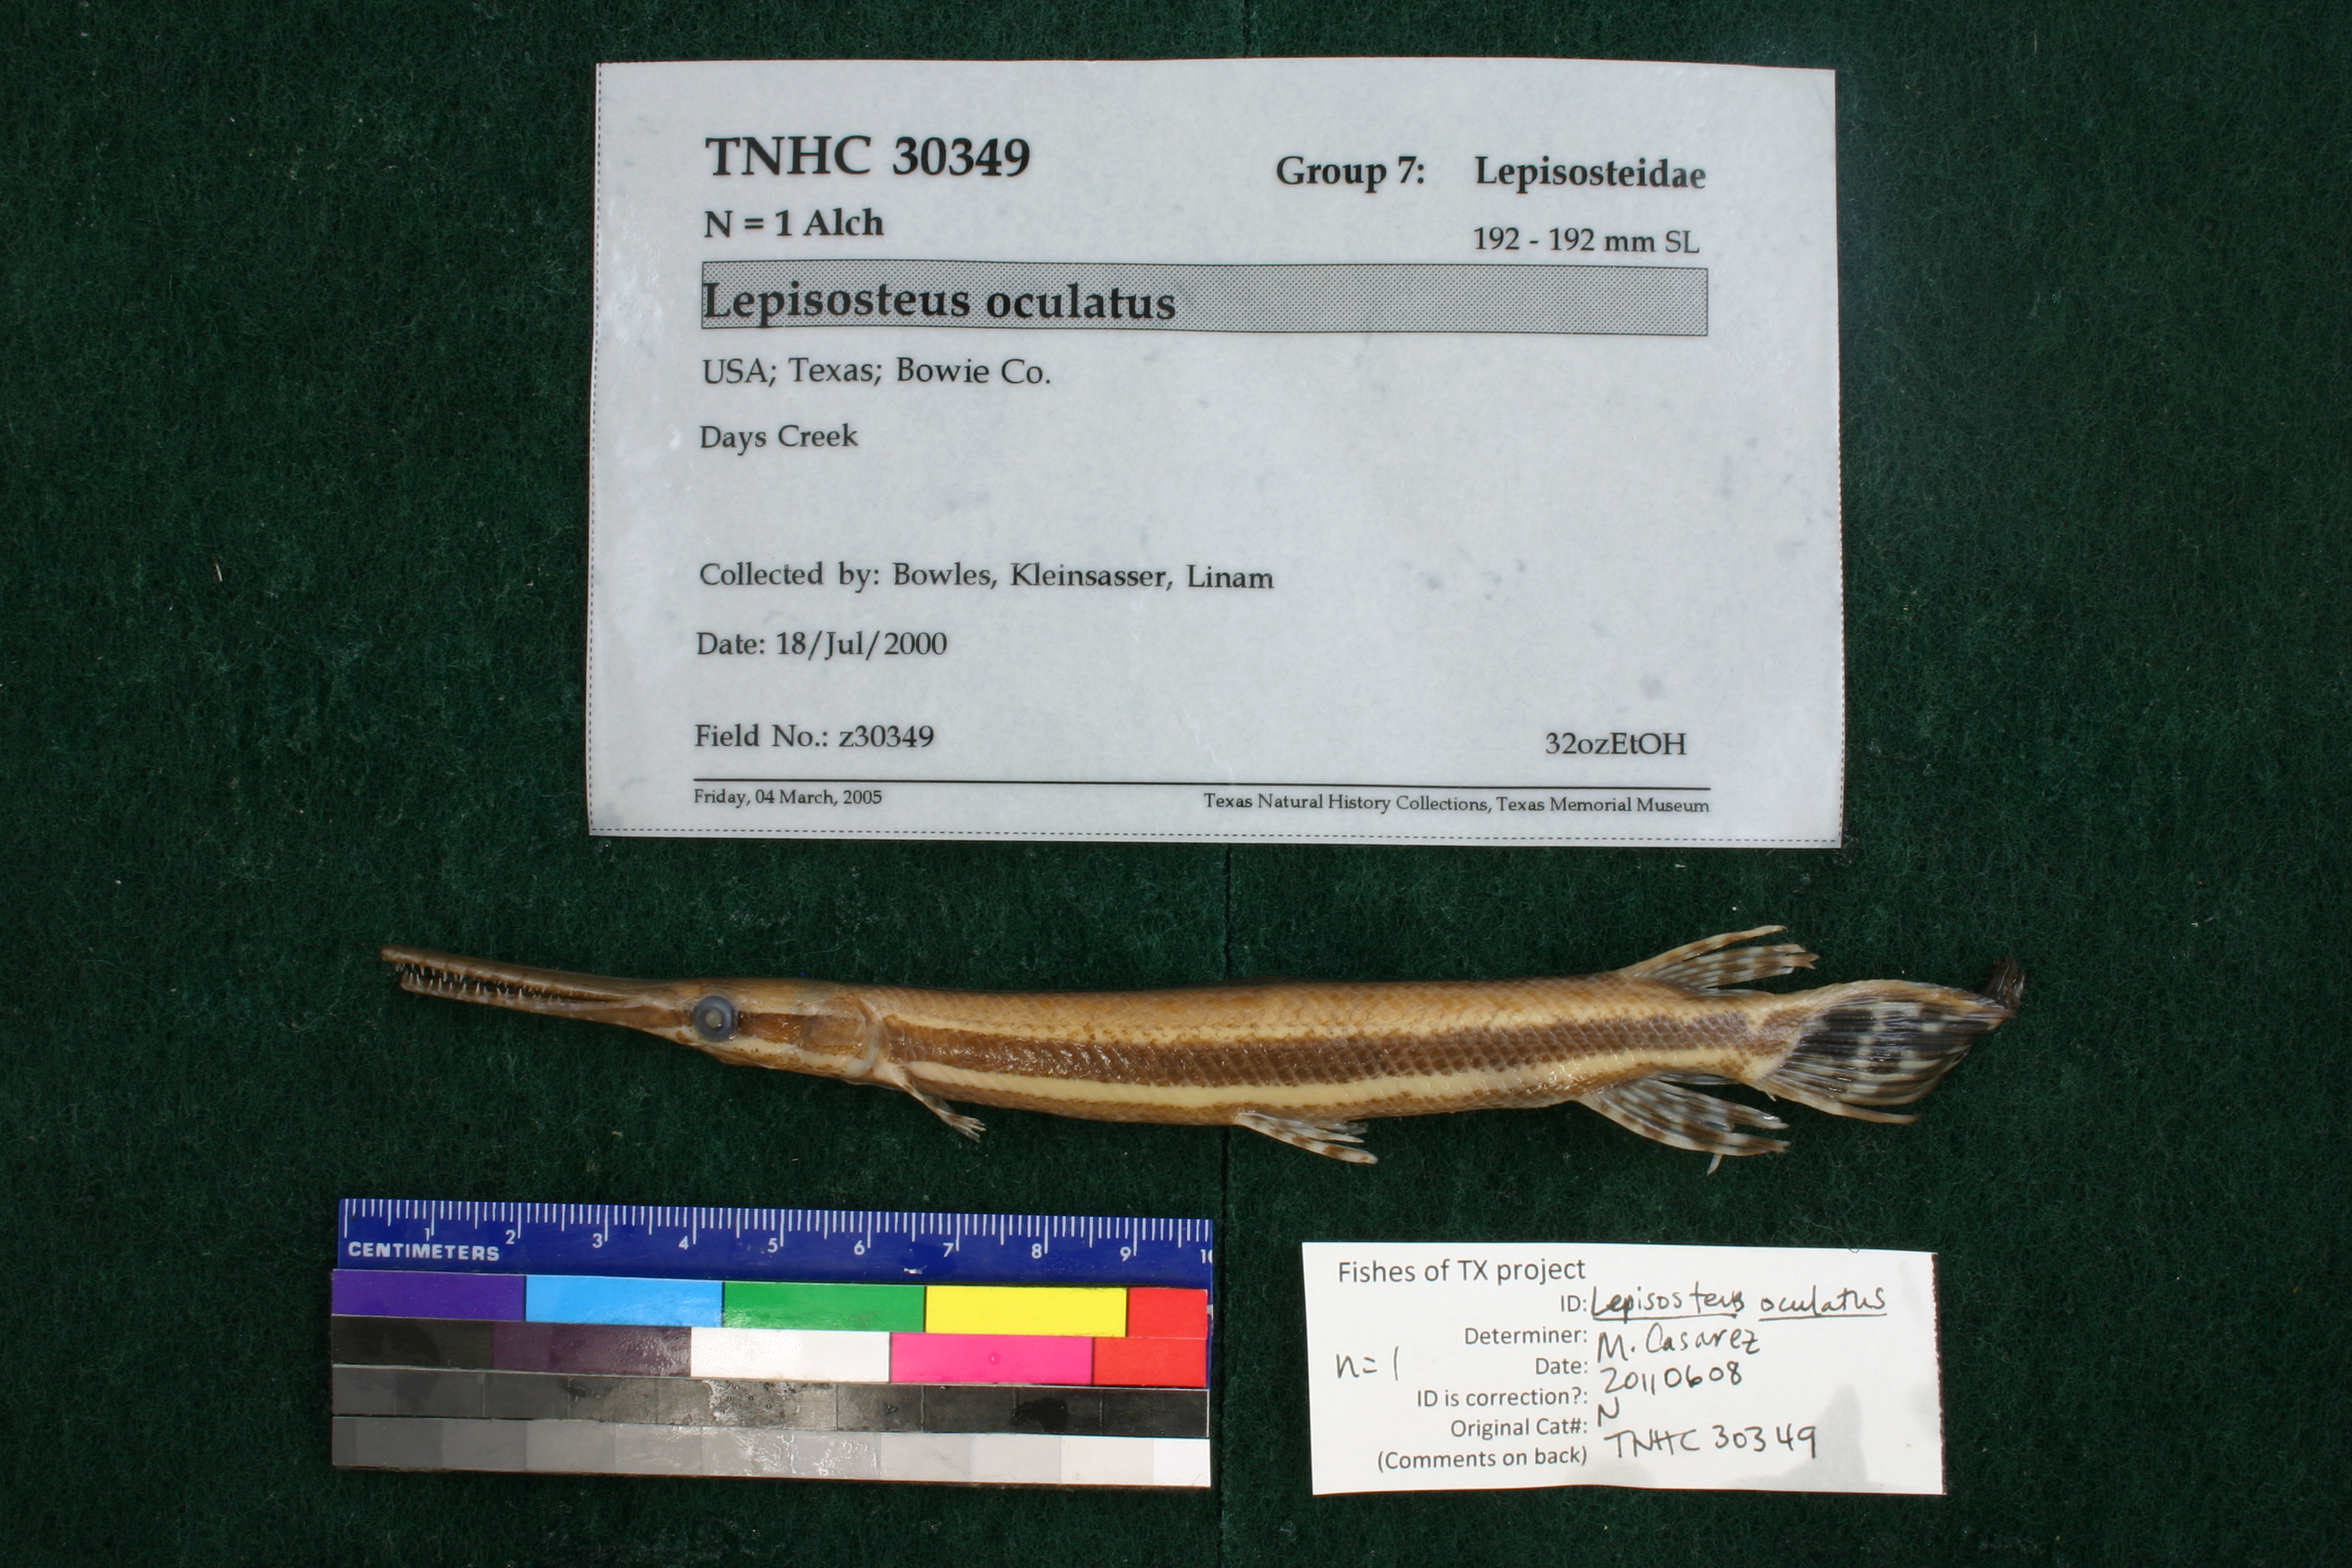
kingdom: Animalia
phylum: Chordata
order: Lepisosteiformes
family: Lepisosteidae
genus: Lepisosteus
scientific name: Lepisosteus oculatus
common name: Spotted gar
